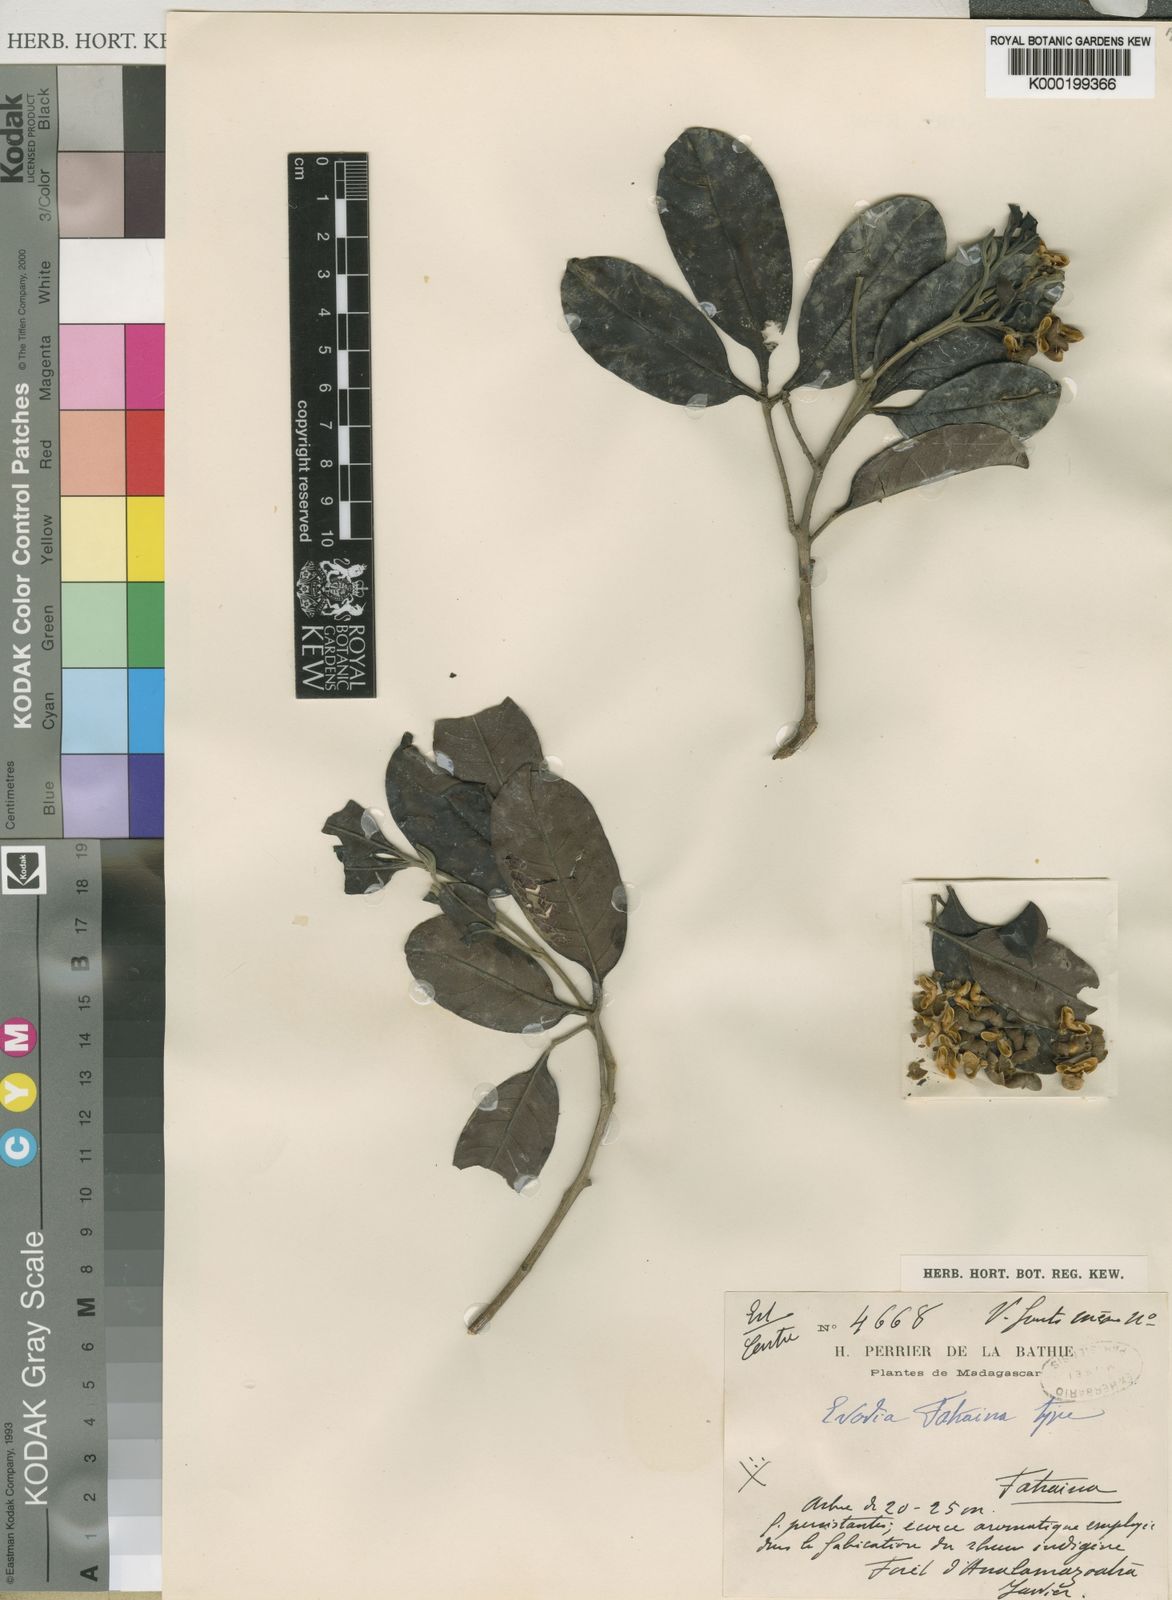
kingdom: Plantae
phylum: Tracheophyta
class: Magnoliopsida
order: Sapindales
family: Rutaceae
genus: Melicope
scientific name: Melicope fatraina
